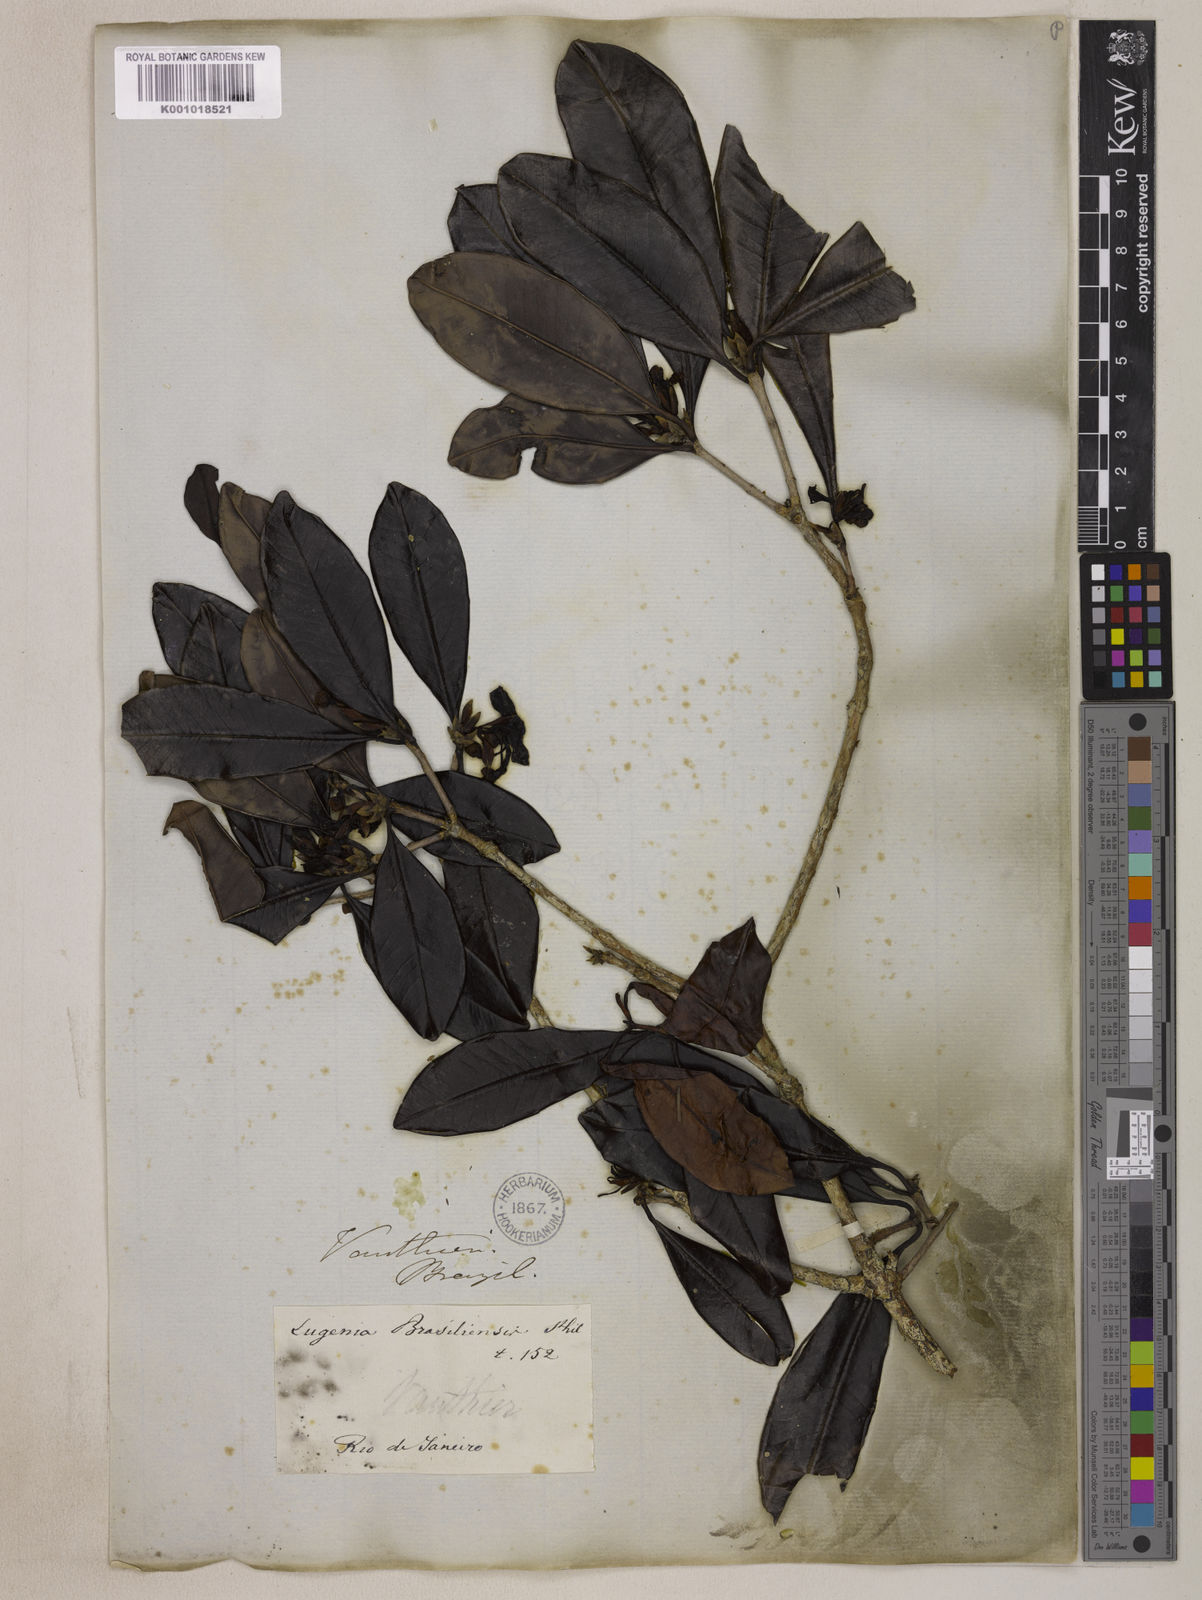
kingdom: Plantae
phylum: Tracheophyta
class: Magnoliopsida
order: Myrtales
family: Myrtaceae
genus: Eugenia
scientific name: Eugenia brasiliensis
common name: Grumichama
